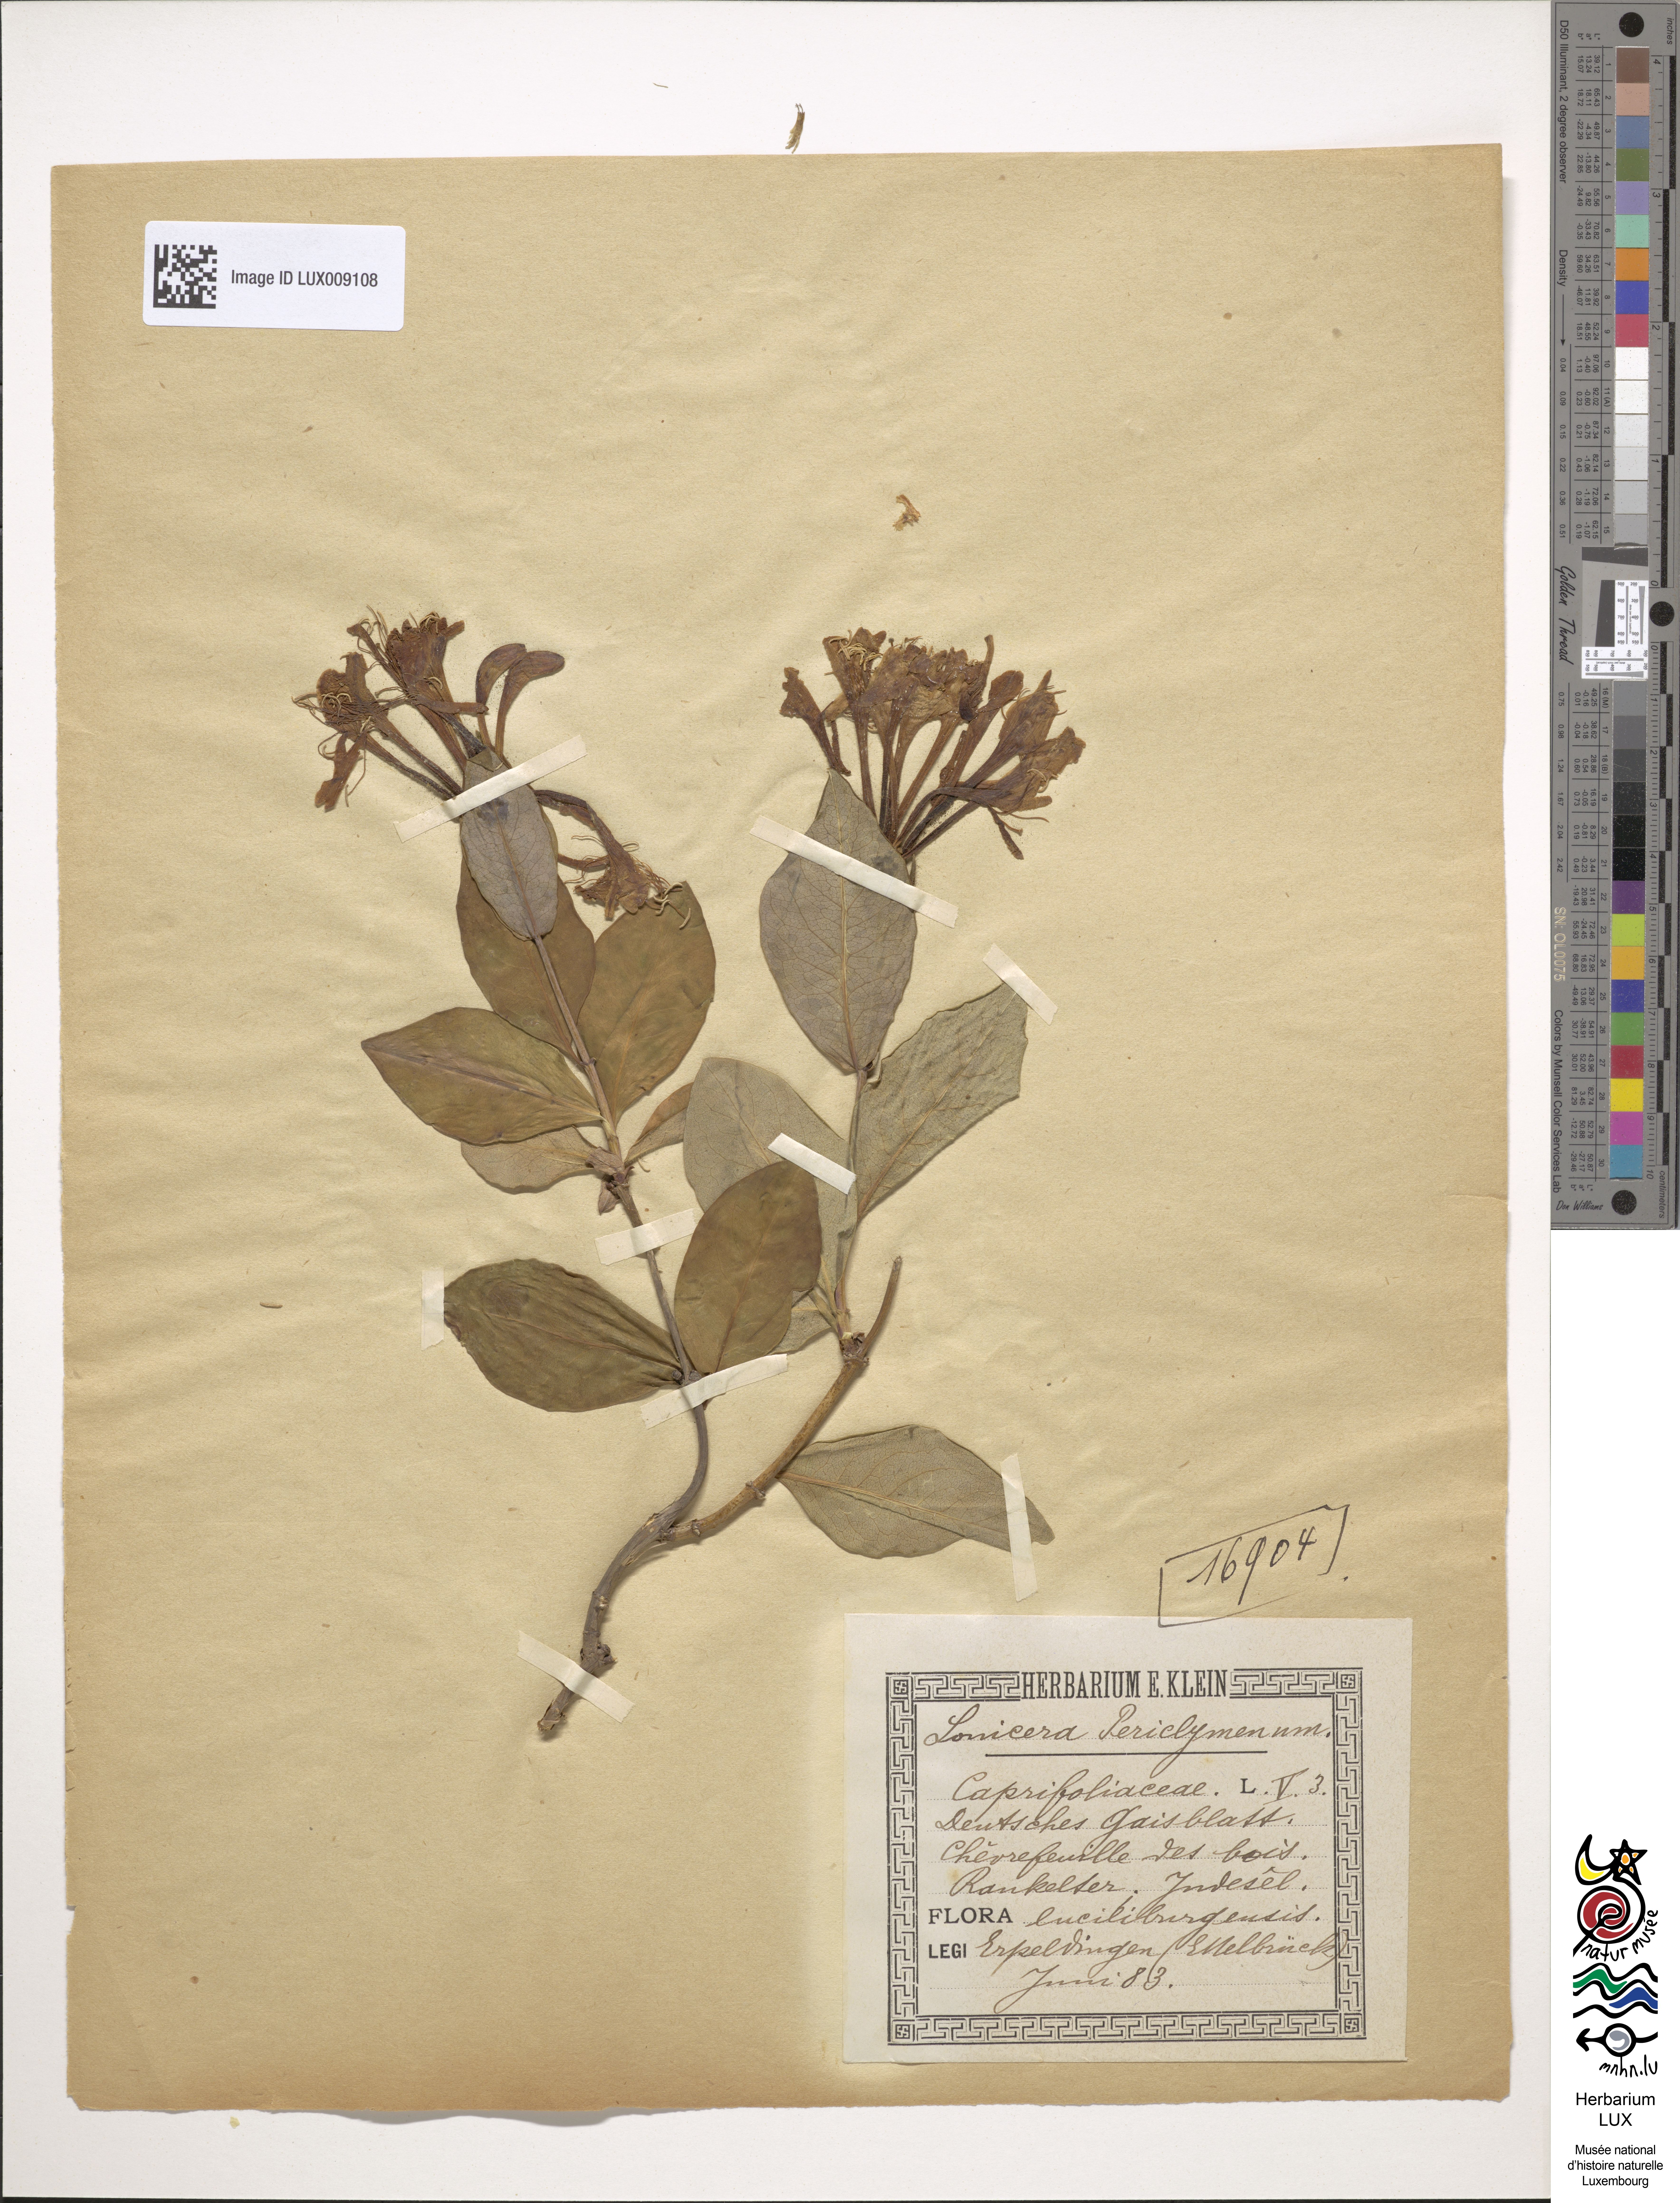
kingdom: Plantae
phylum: Tracheophyta
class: Magnoliopsida
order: Dipsacales
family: Caprifoliaceae
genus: Lonicera
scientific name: Lonicera periclymenum
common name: European honeysuckle
